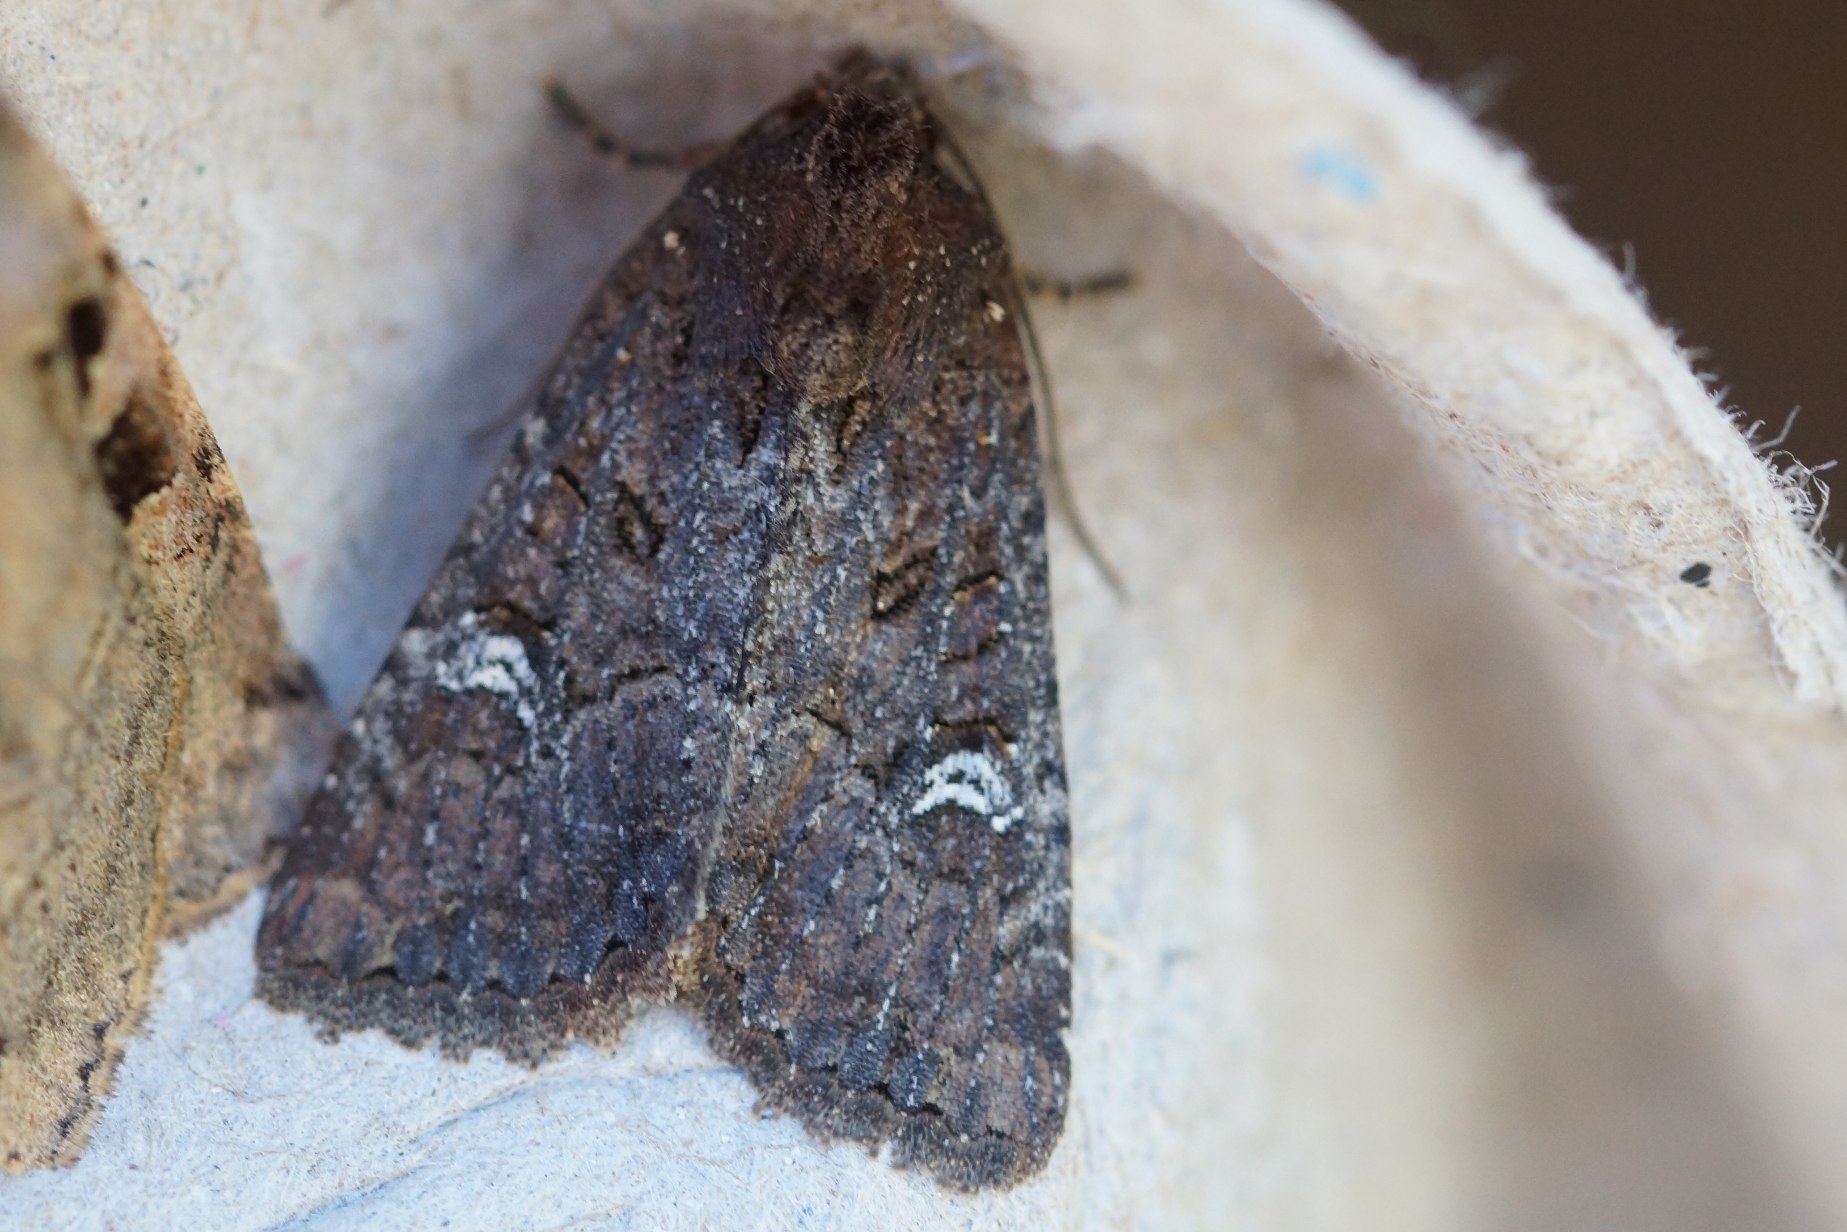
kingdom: Animalia
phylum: Arthropoda
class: Insecta
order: Lepidoptera
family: Noctuidae
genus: Mamestra
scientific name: Mamestra brassicae
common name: Kålugle
